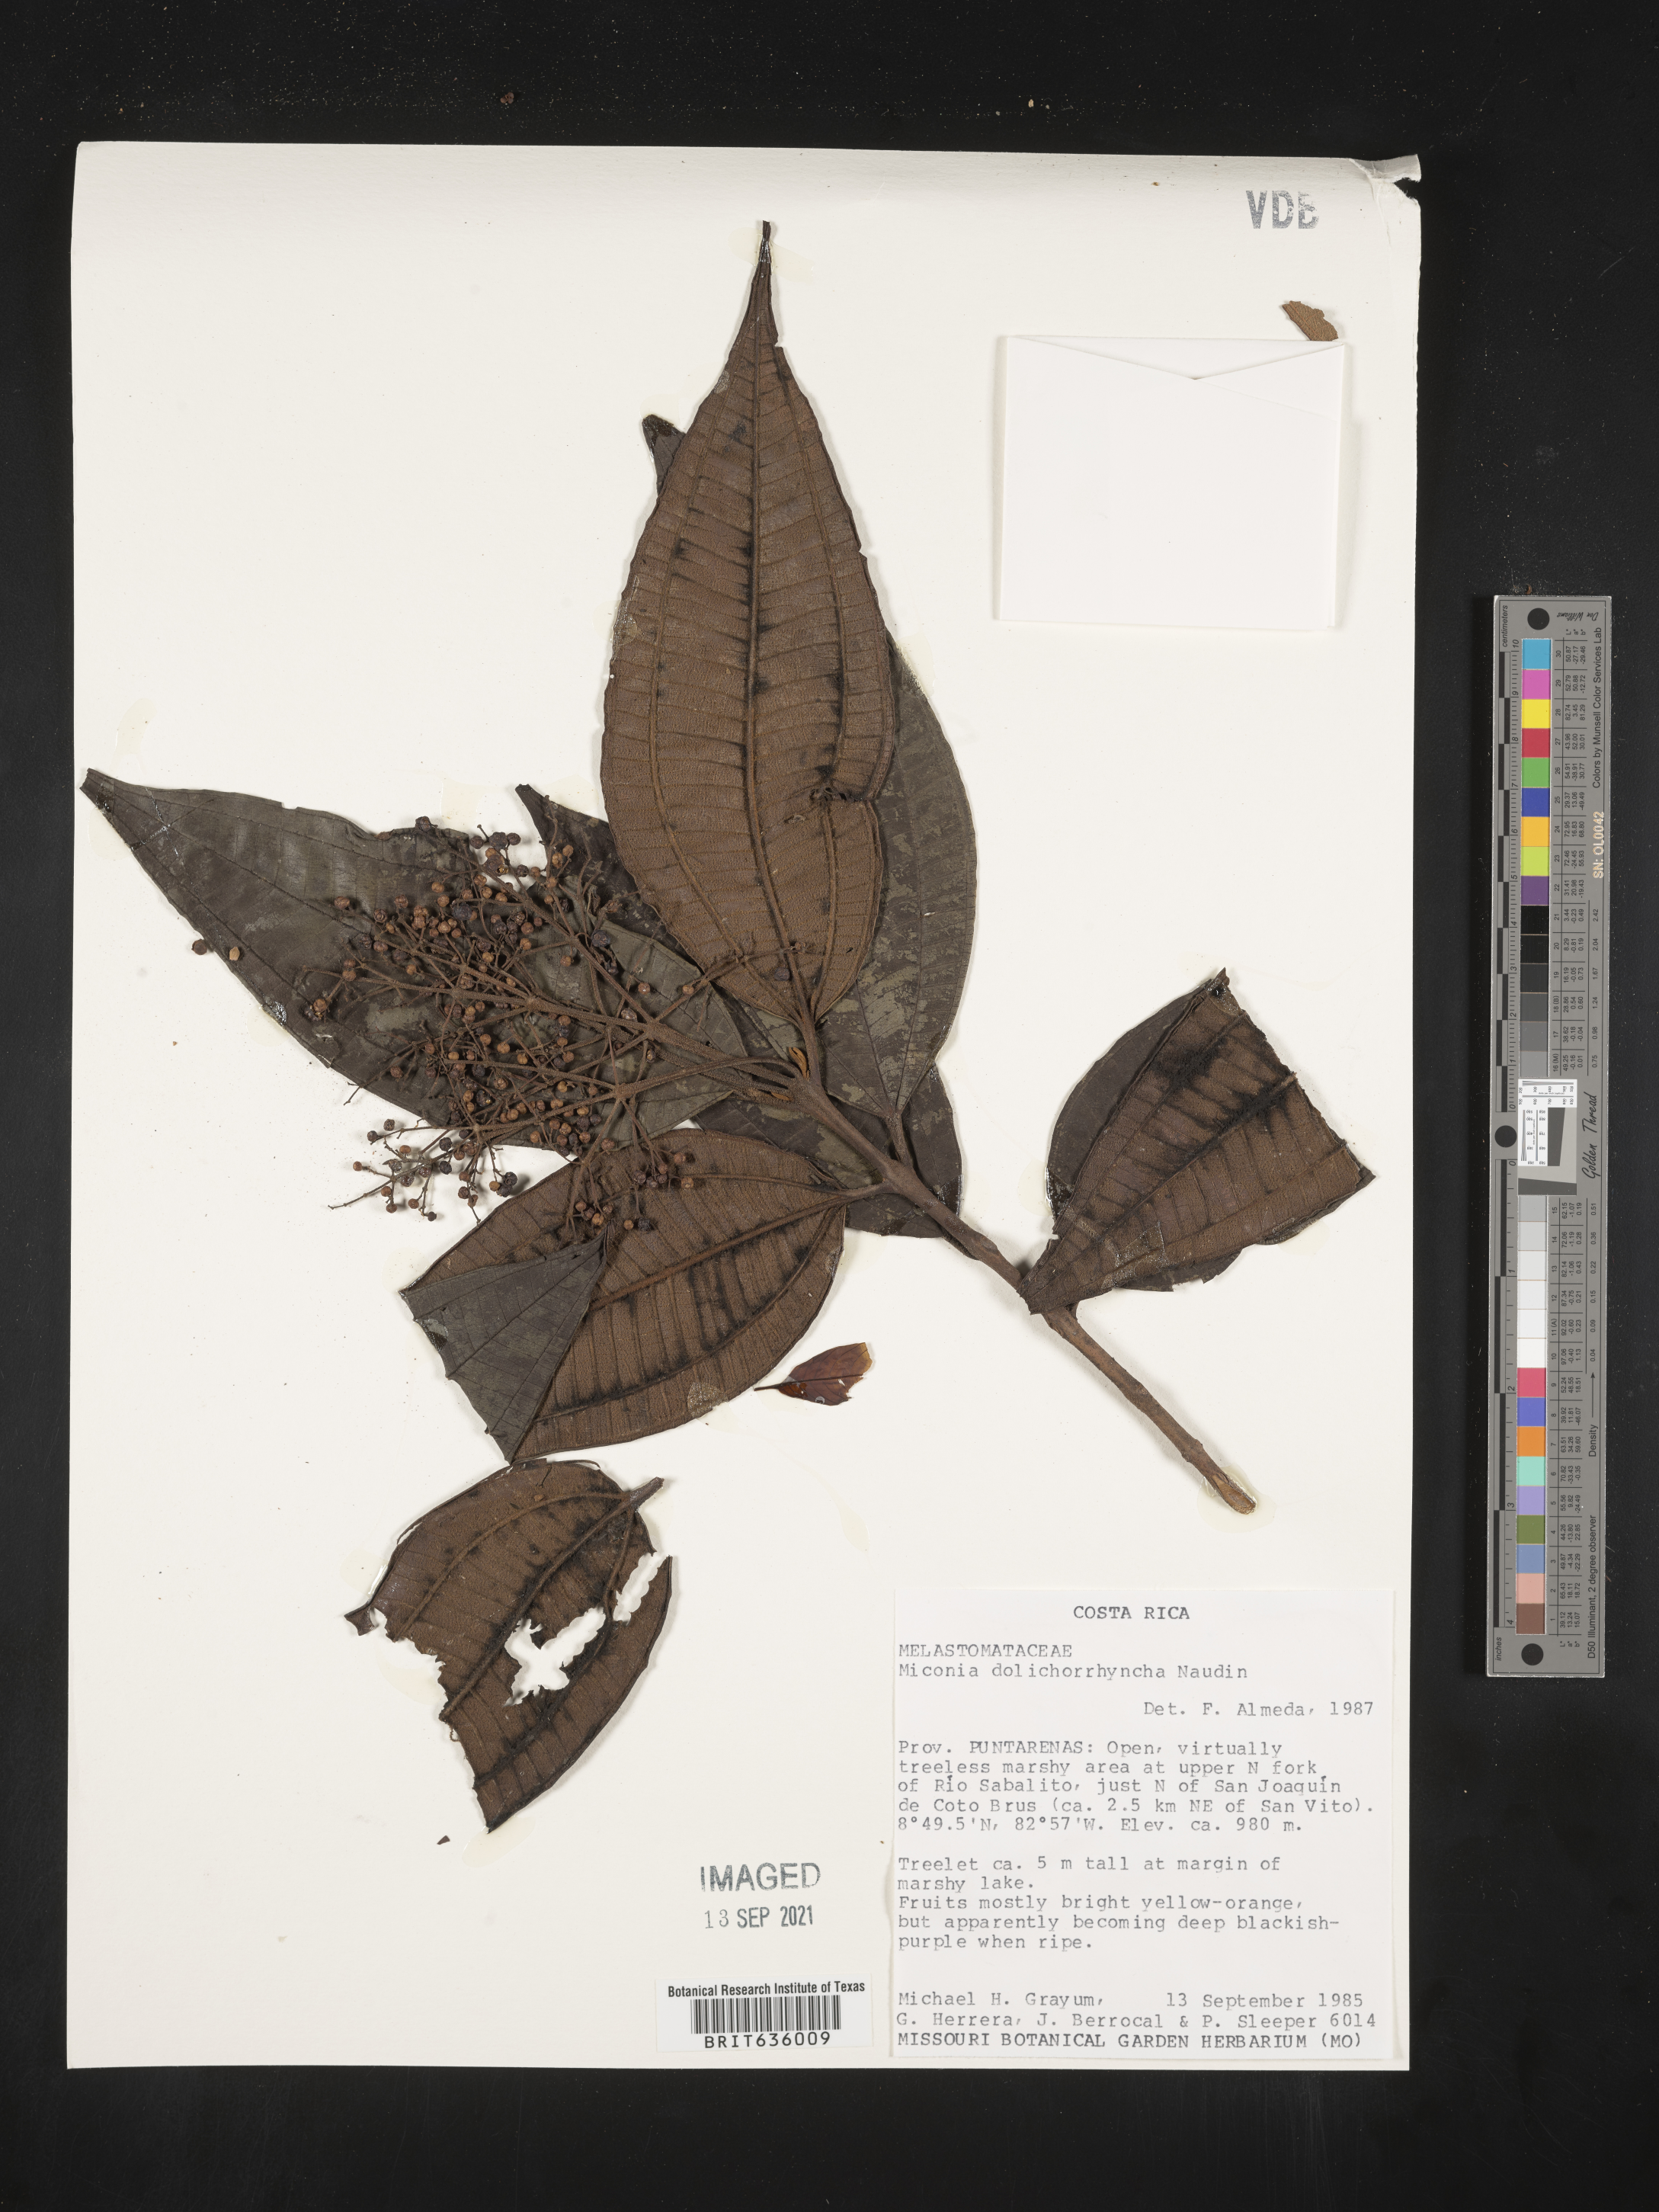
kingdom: Plantae
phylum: Tracheophyta
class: Magnoliopsida
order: Myrtales
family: Melastomataceae
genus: Miconia
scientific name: Miconia
